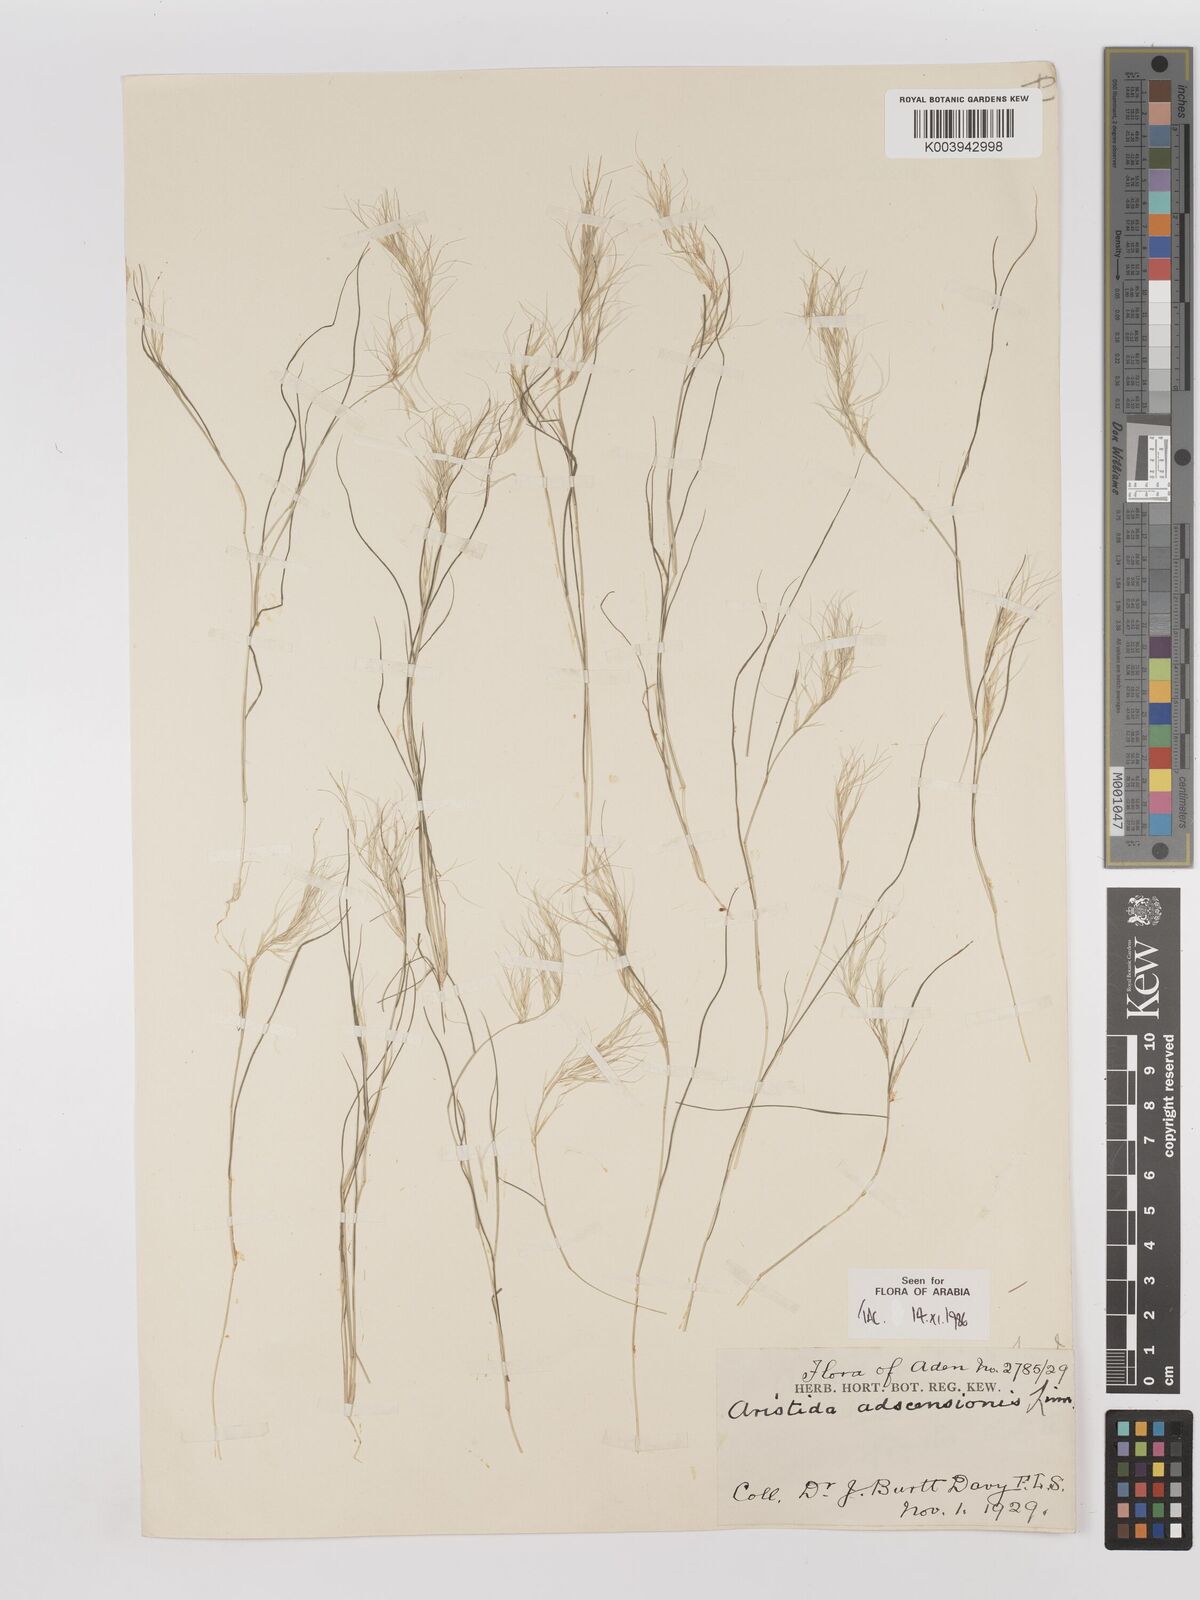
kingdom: Plantae
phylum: Tracheophyta
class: Liliopsida
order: Poales
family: Poaceae
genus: Aristida
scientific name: Aristida adscensionis
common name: Sixweeks threeawn
